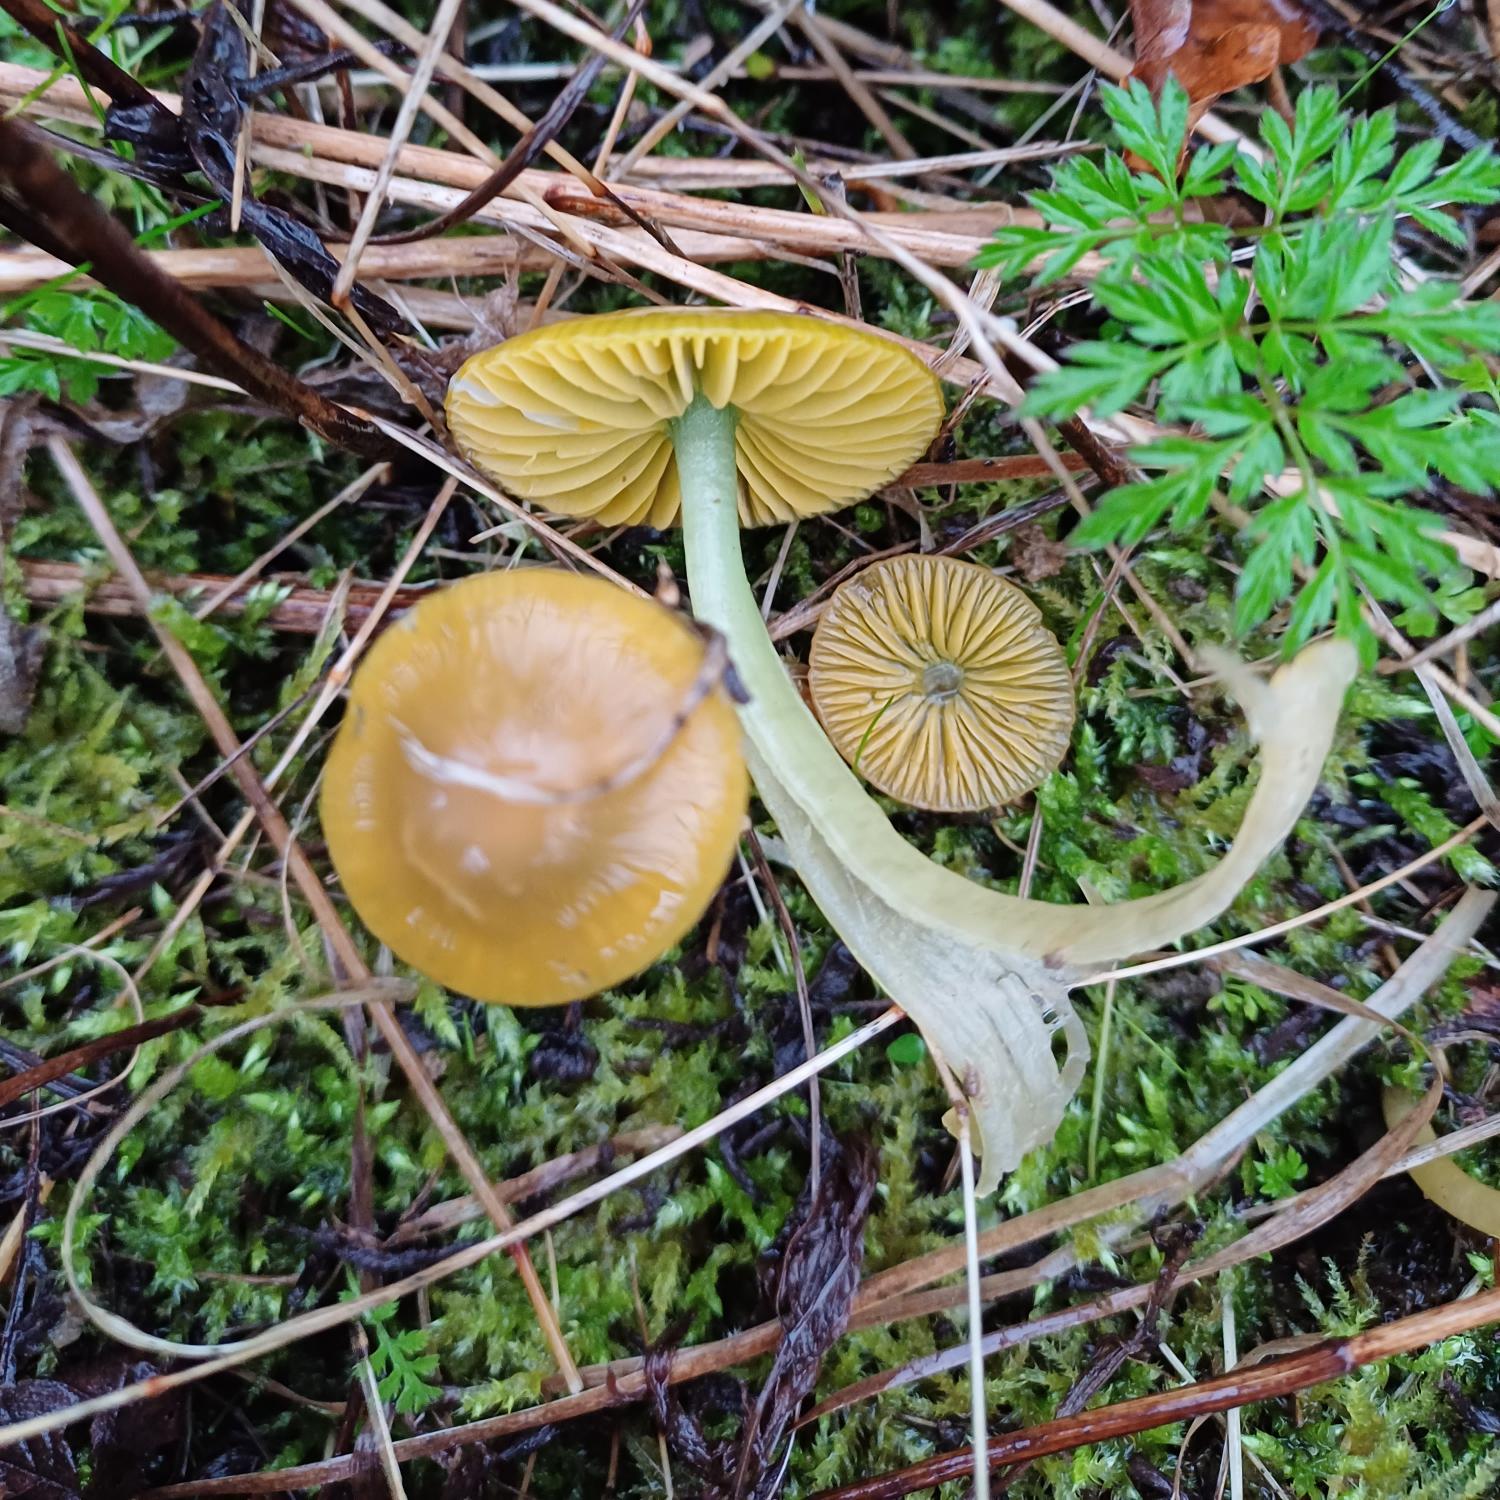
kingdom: Fungi
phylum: Basidiomycota
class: Agaricomycetes
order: Agaricales
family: Hygrophoraceae
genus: Gliophorus
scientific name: Gliophorus psittacinus
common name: Papegøje-vokshat
